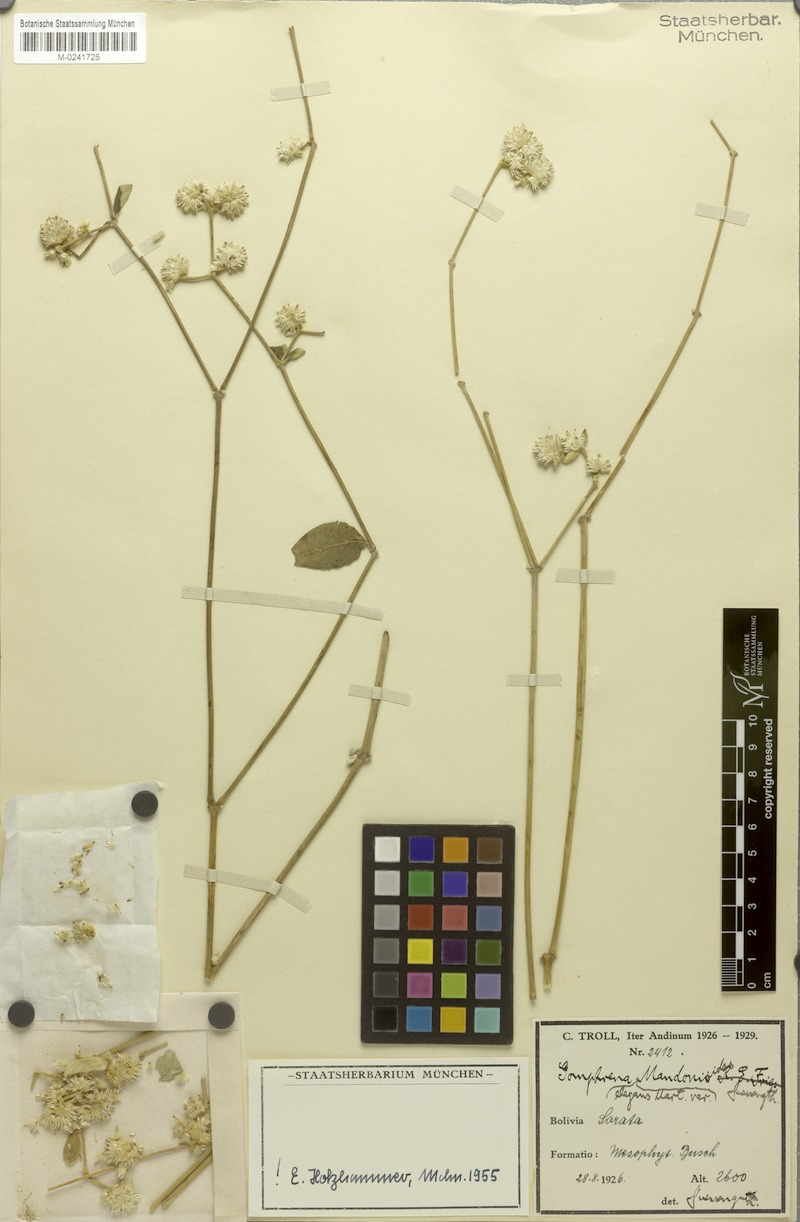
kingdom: Plantae
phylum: Tracheophyta
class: Magnoliopsida
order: Caryophyllales
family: Amaranthaceae
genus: Gomphrena
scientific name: Gomphrena elegans
